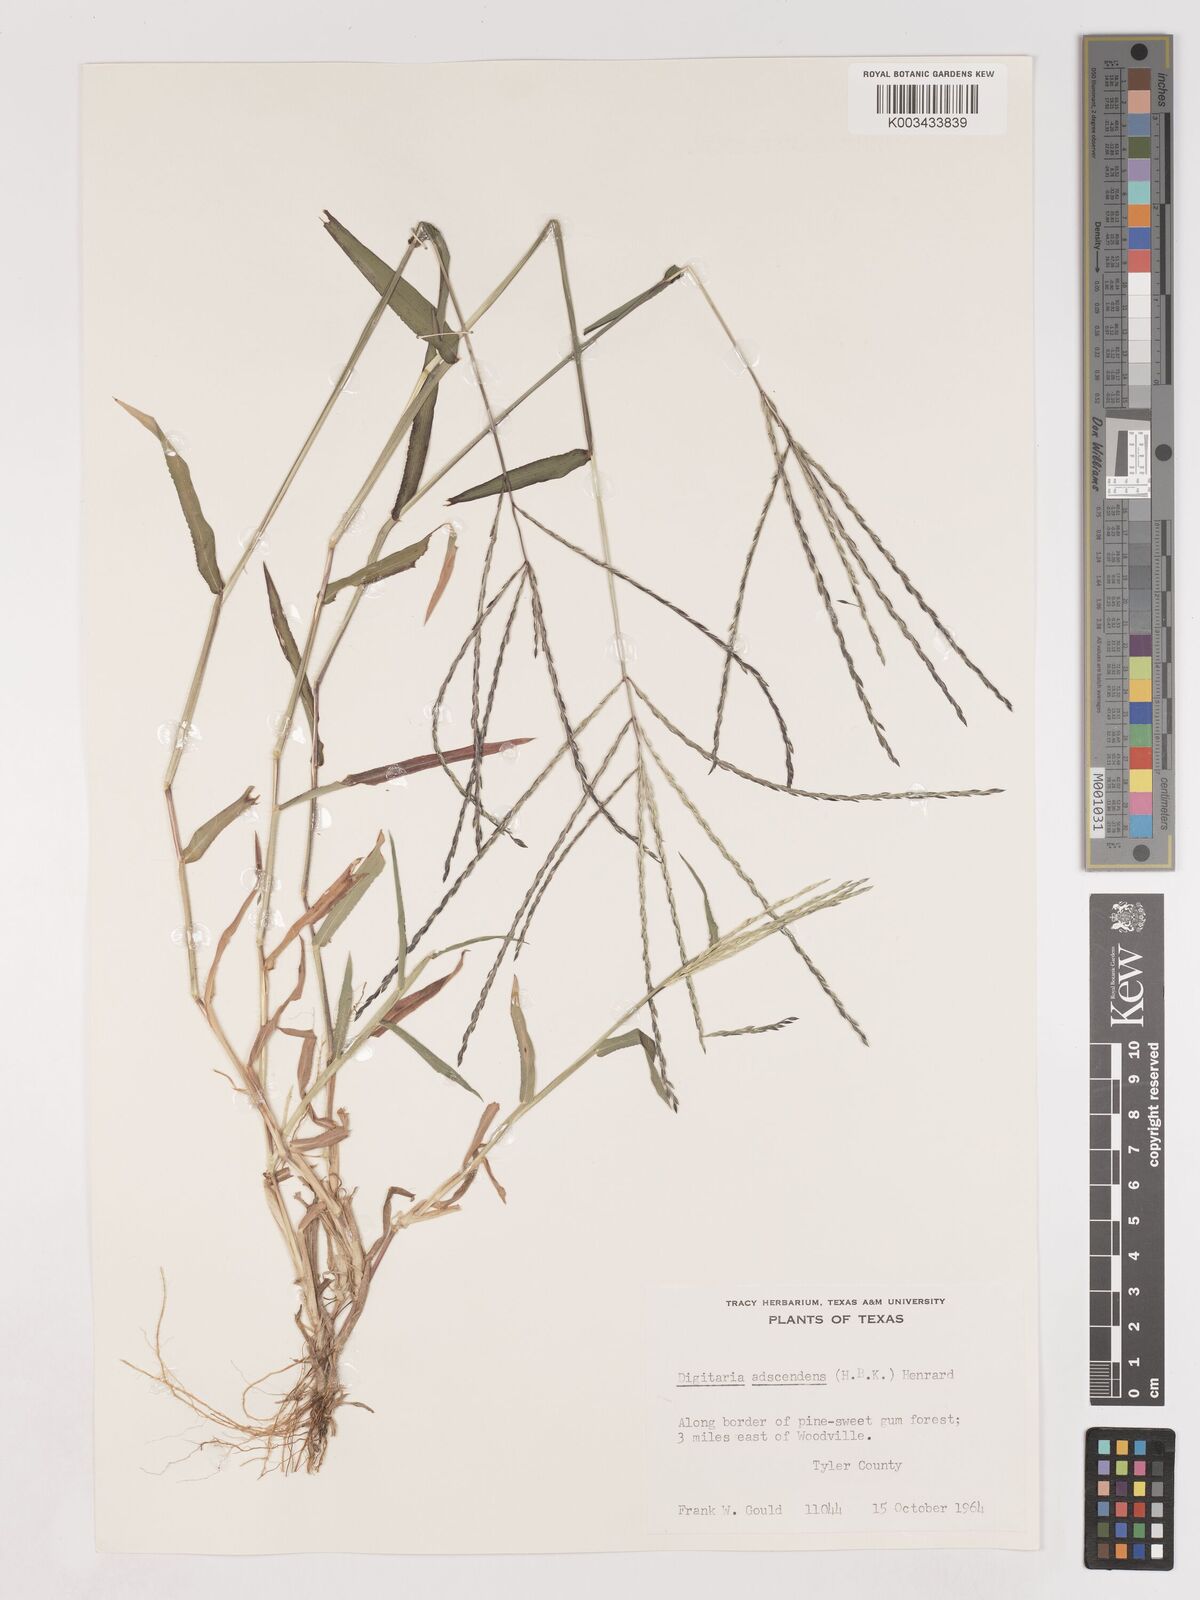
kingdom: Plantae
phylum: Tracheophyta
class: Liliopsida
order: Poales
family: Poaceae
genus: Digitaria
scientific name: Digitaria ciliaris
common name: Tropical finger-grass
